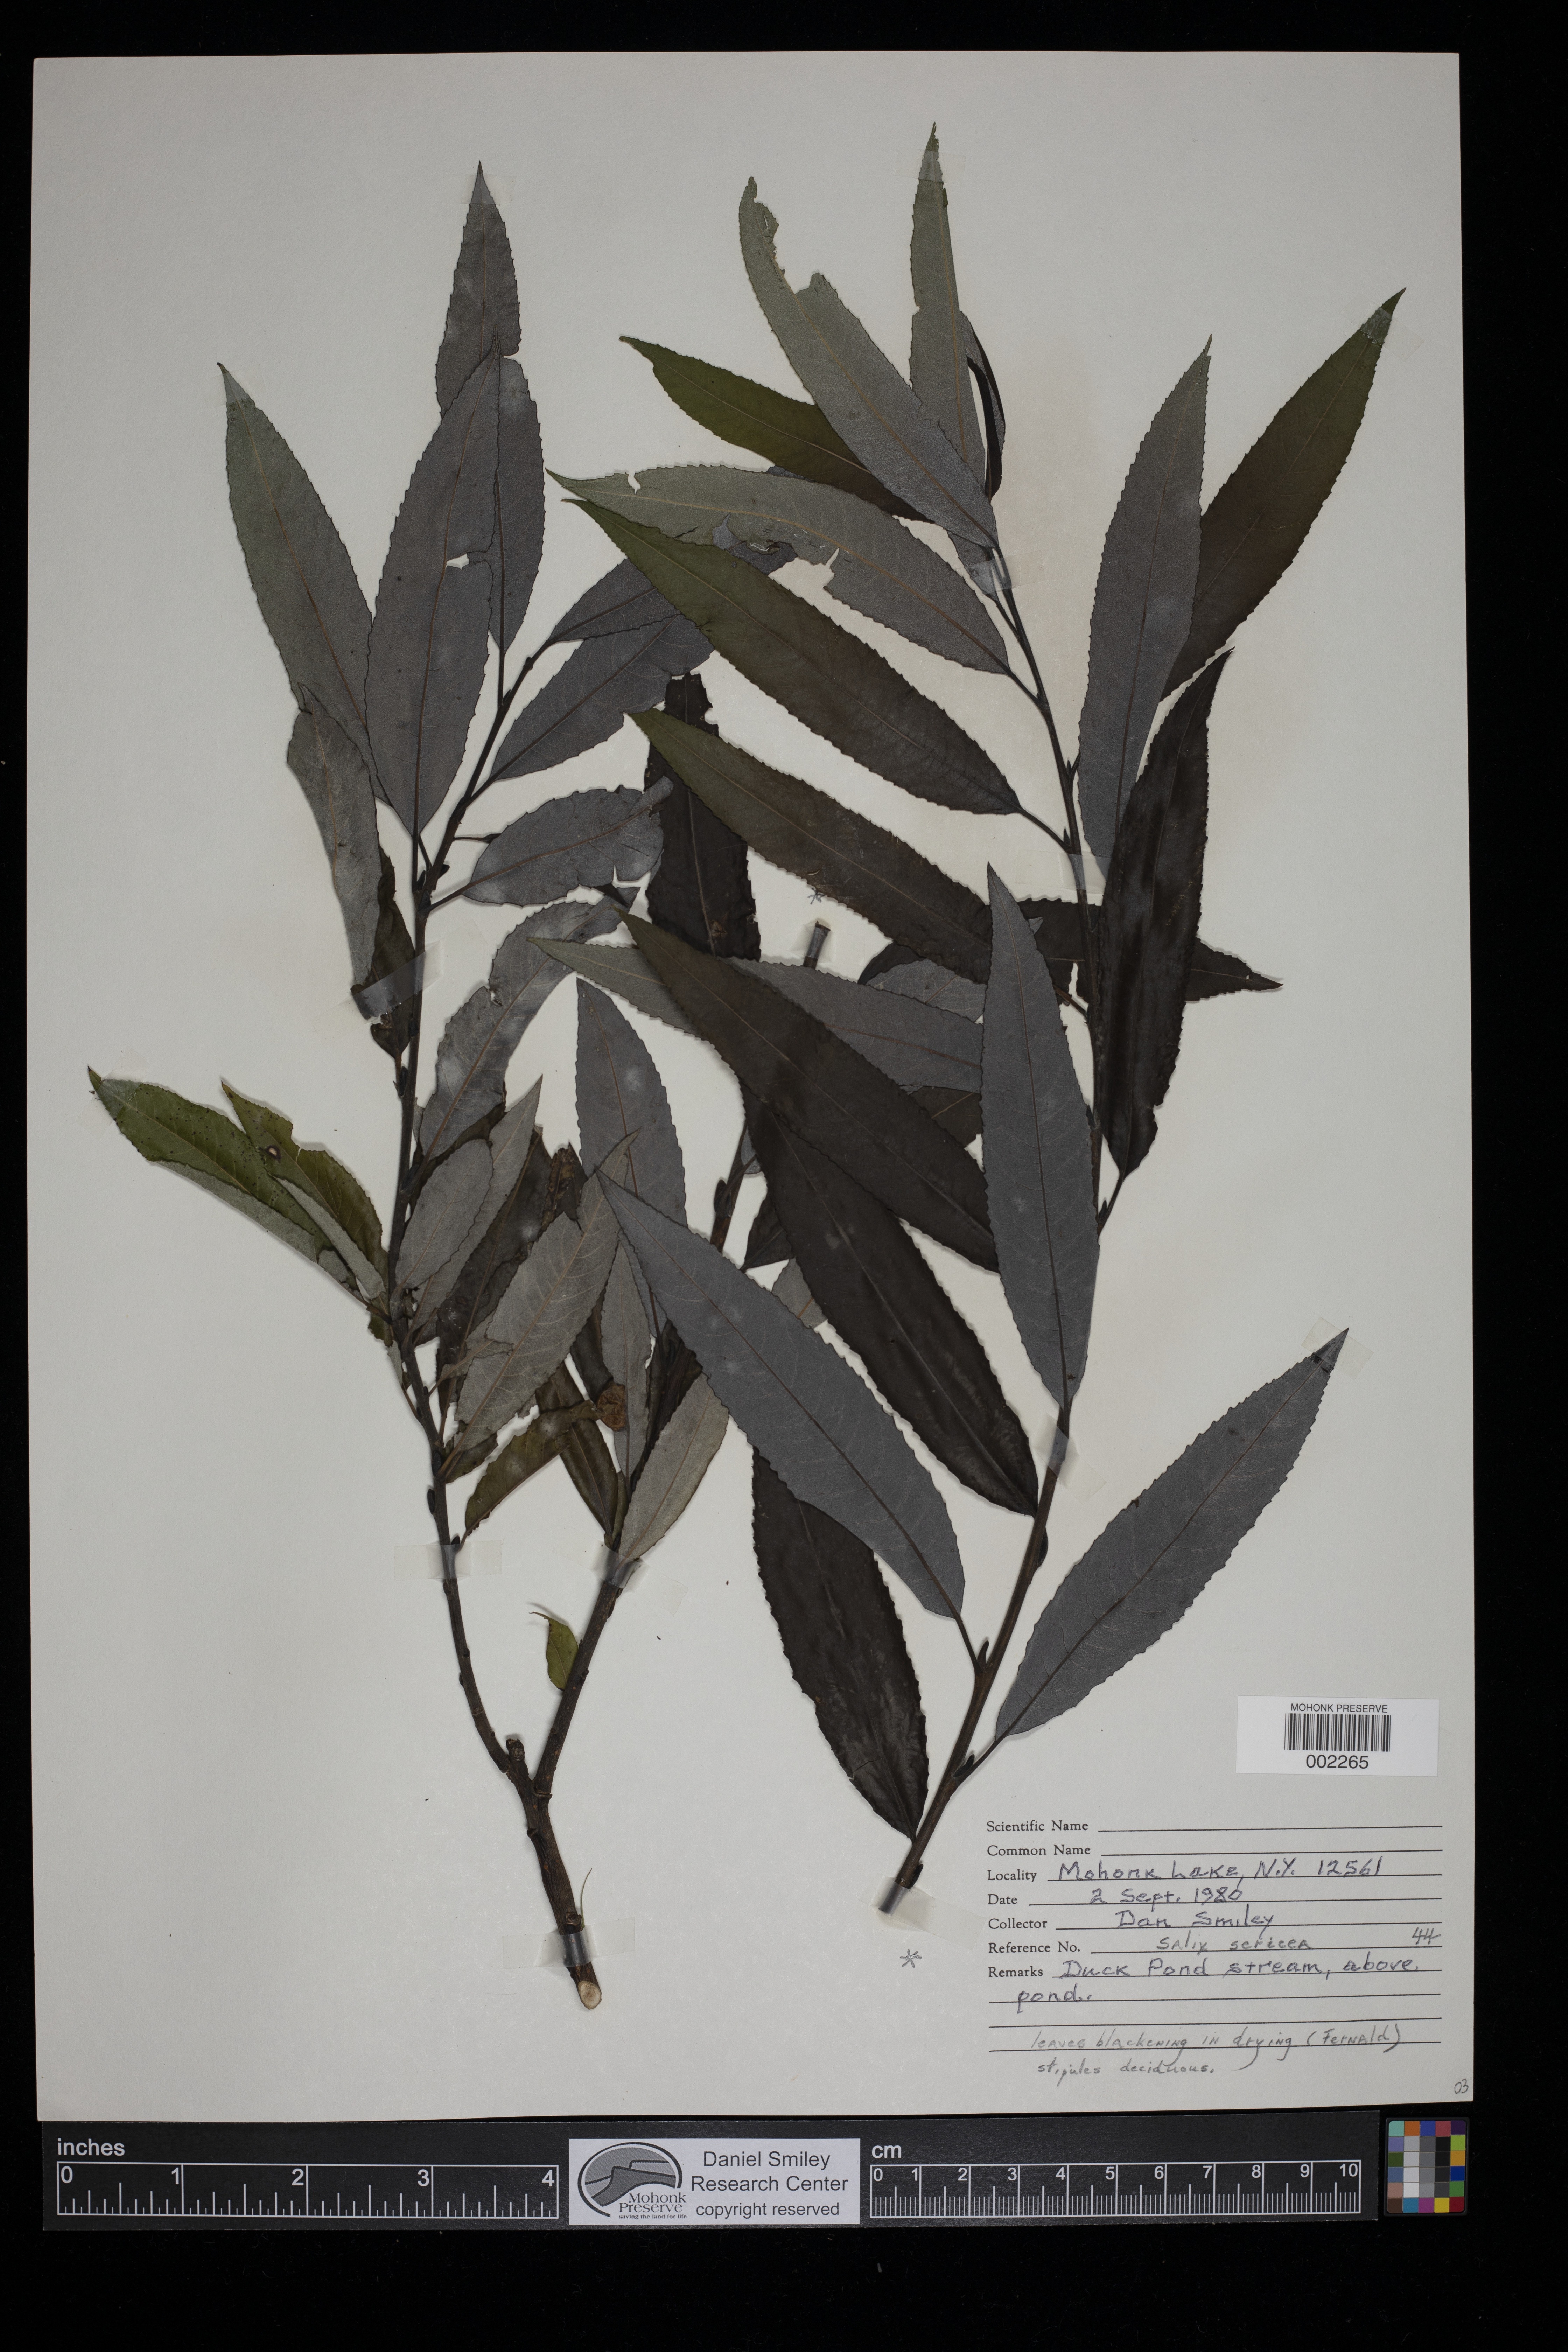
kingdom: Plantae
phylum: Tracheophyta
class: Magnoliopsida
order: Malpighiales
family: Salicaceae
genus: Salix
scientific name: Salix sericea
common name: Silky willow
